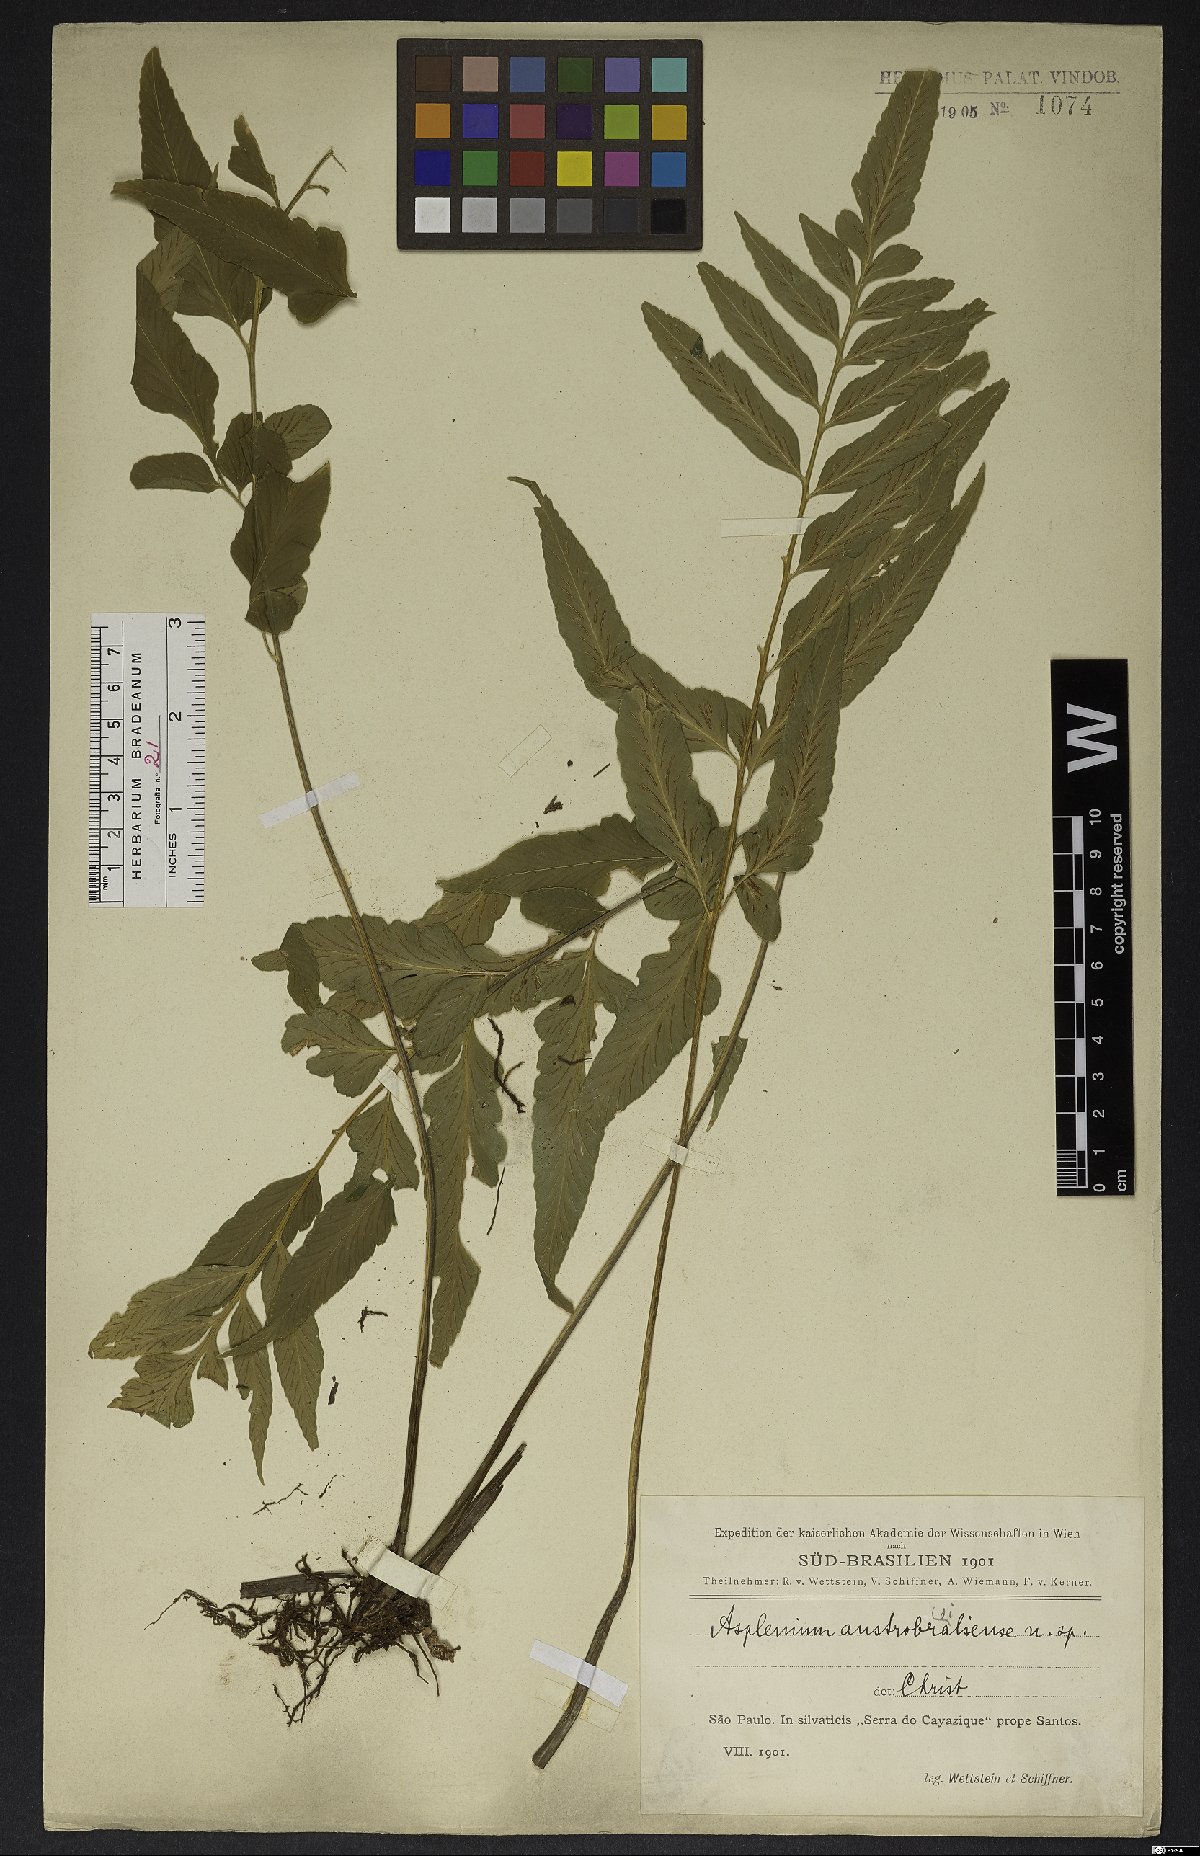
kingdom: Plantae
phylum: Tracheophyta
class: Polypodiopsida
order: Polypodiales
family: Aspleniaceae
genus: Asplenium
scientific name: Asplenium austrobrasiliense
